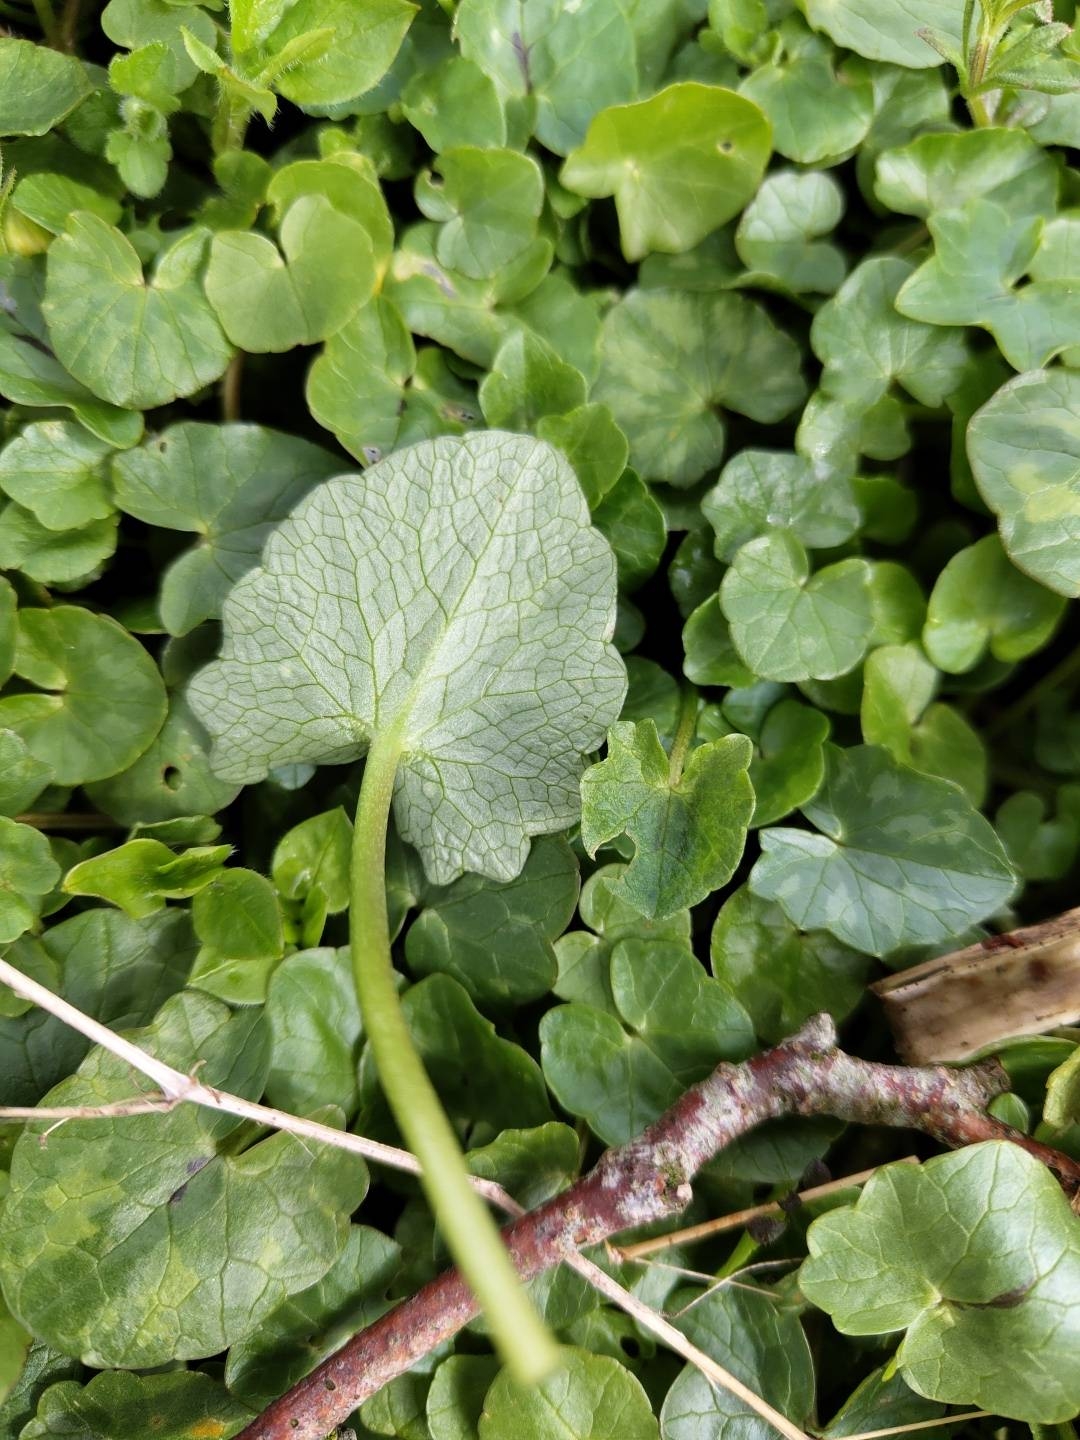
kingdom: Plantae
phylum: Tracheophyta
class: Magnoliopsida
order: Ranunculales
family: Ranunculaceae
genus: Ficaria
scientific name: Ficaria verna
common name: Vorterod
